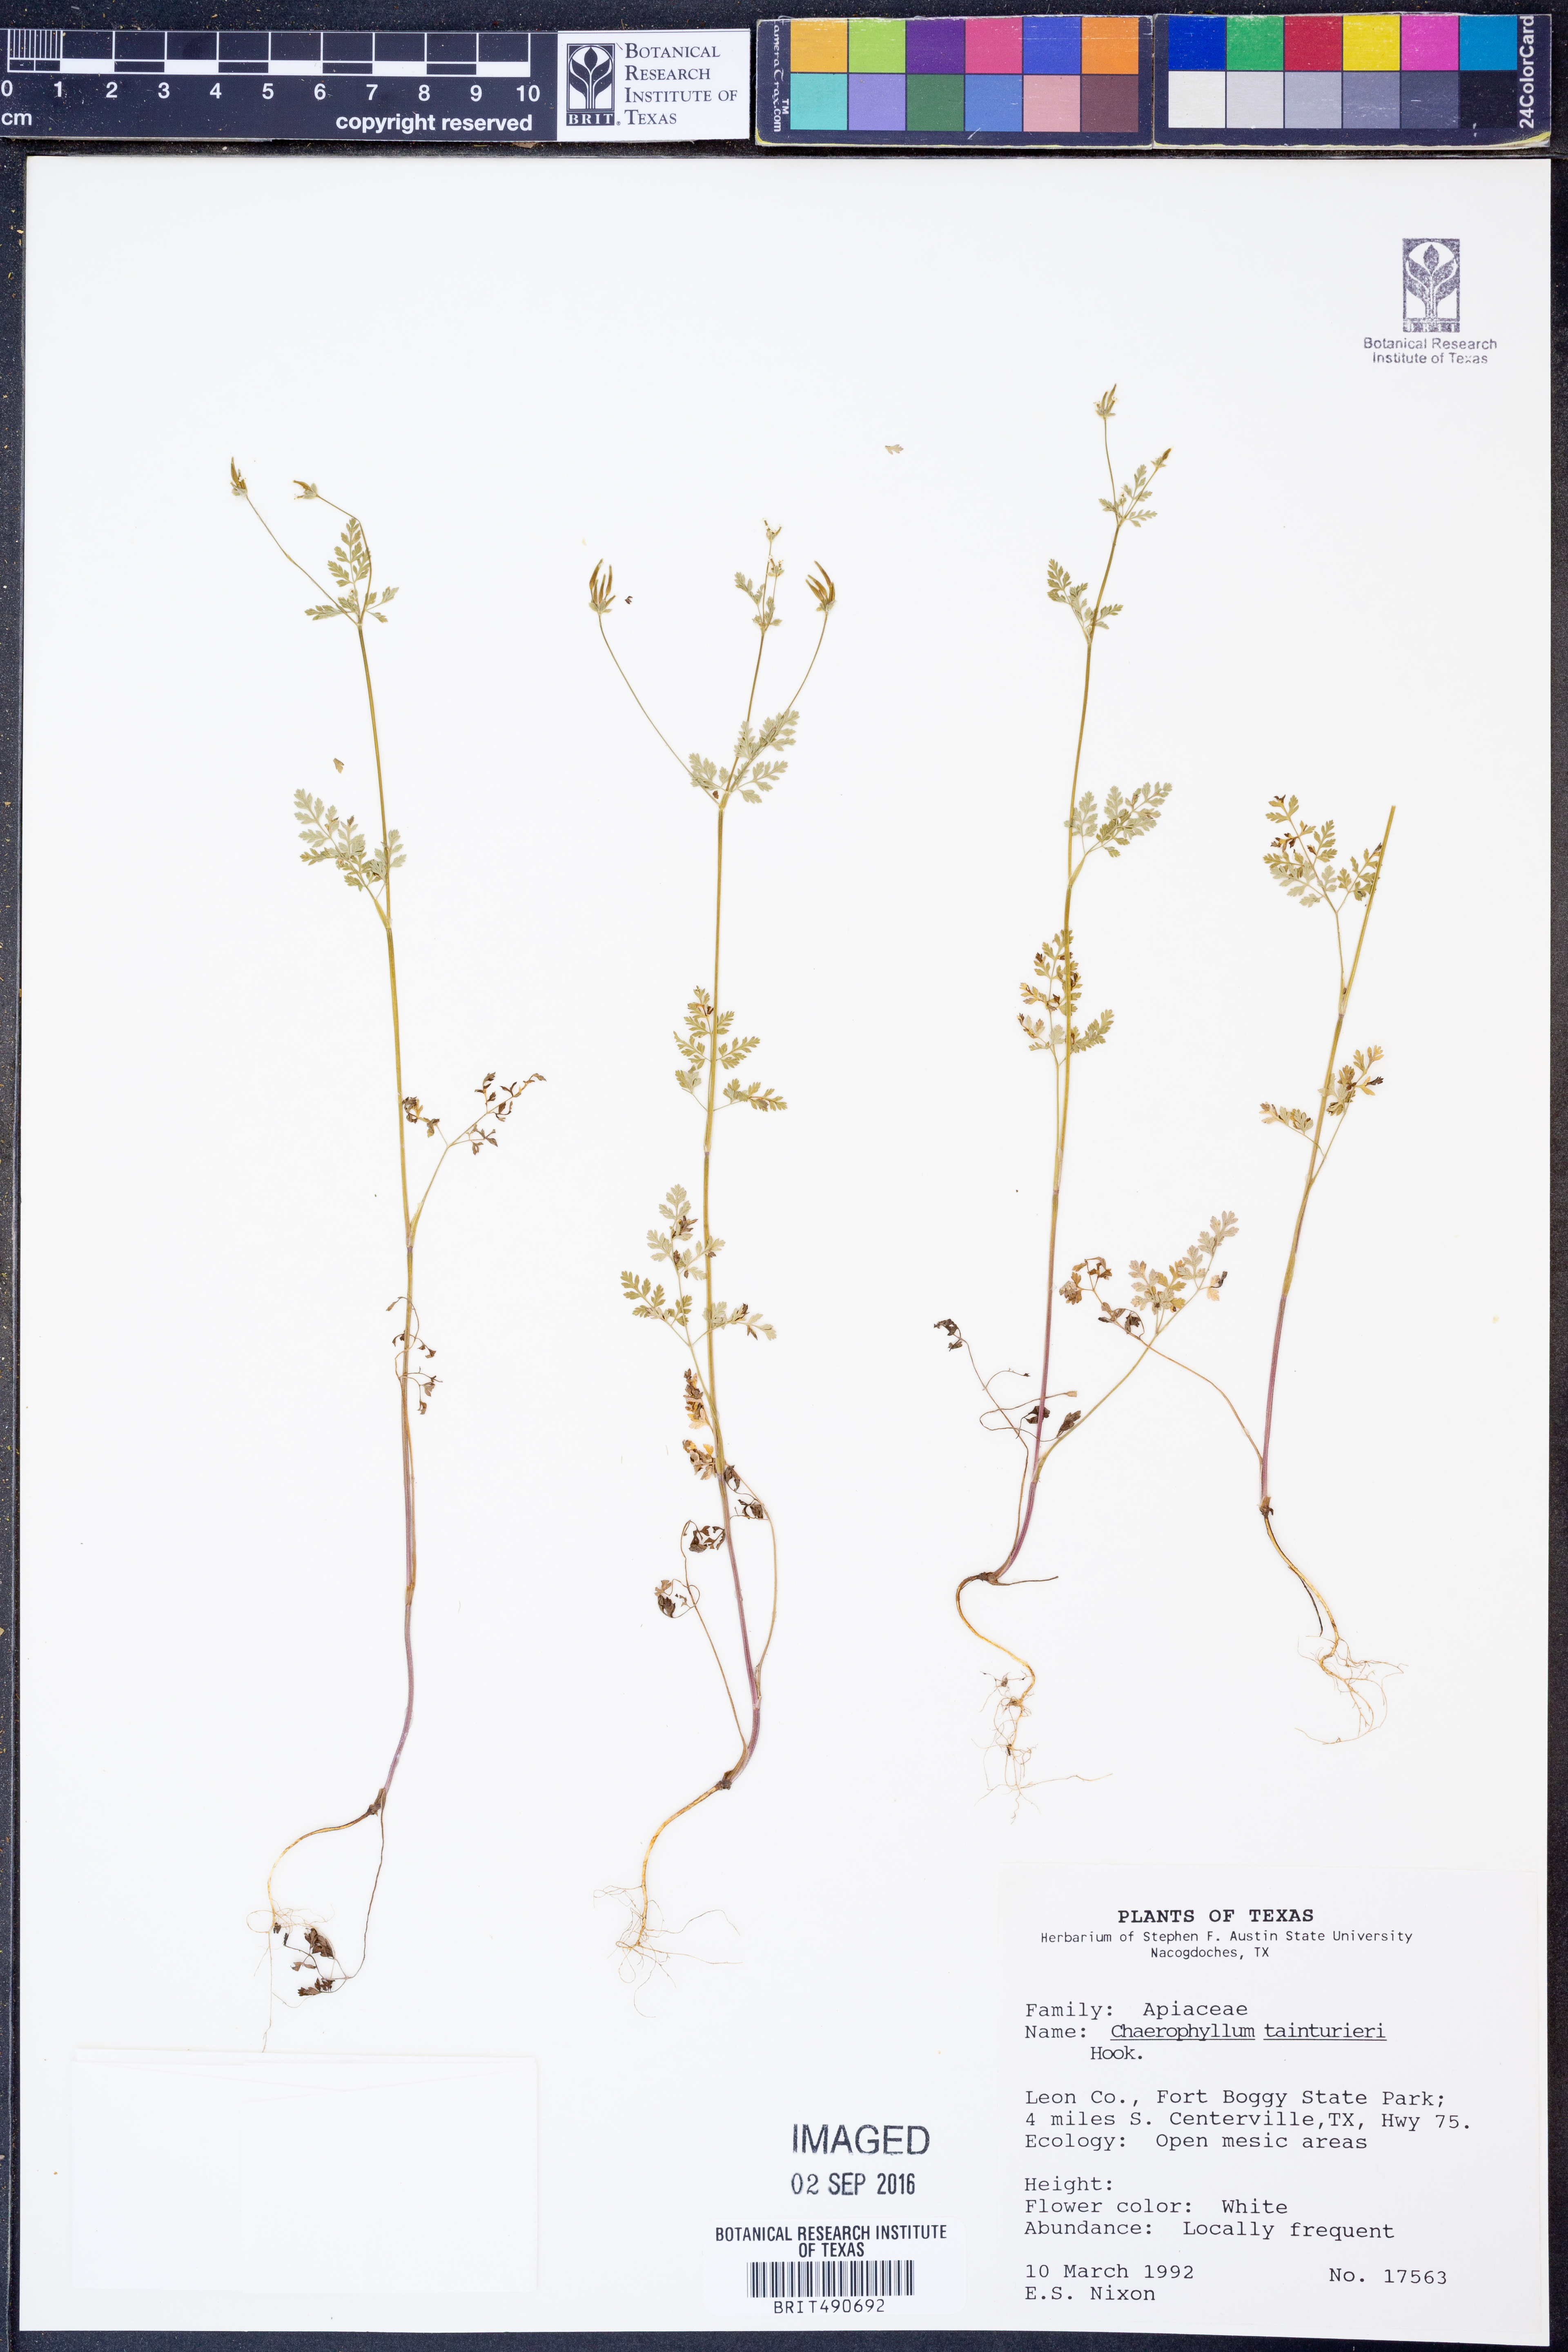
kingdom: Plantae
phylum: Tracheophyta
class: Magnoliopsida
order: Apiales
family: Apiaceae
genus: Chaerophyllum
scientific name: Chaerophyllum tainturieri
